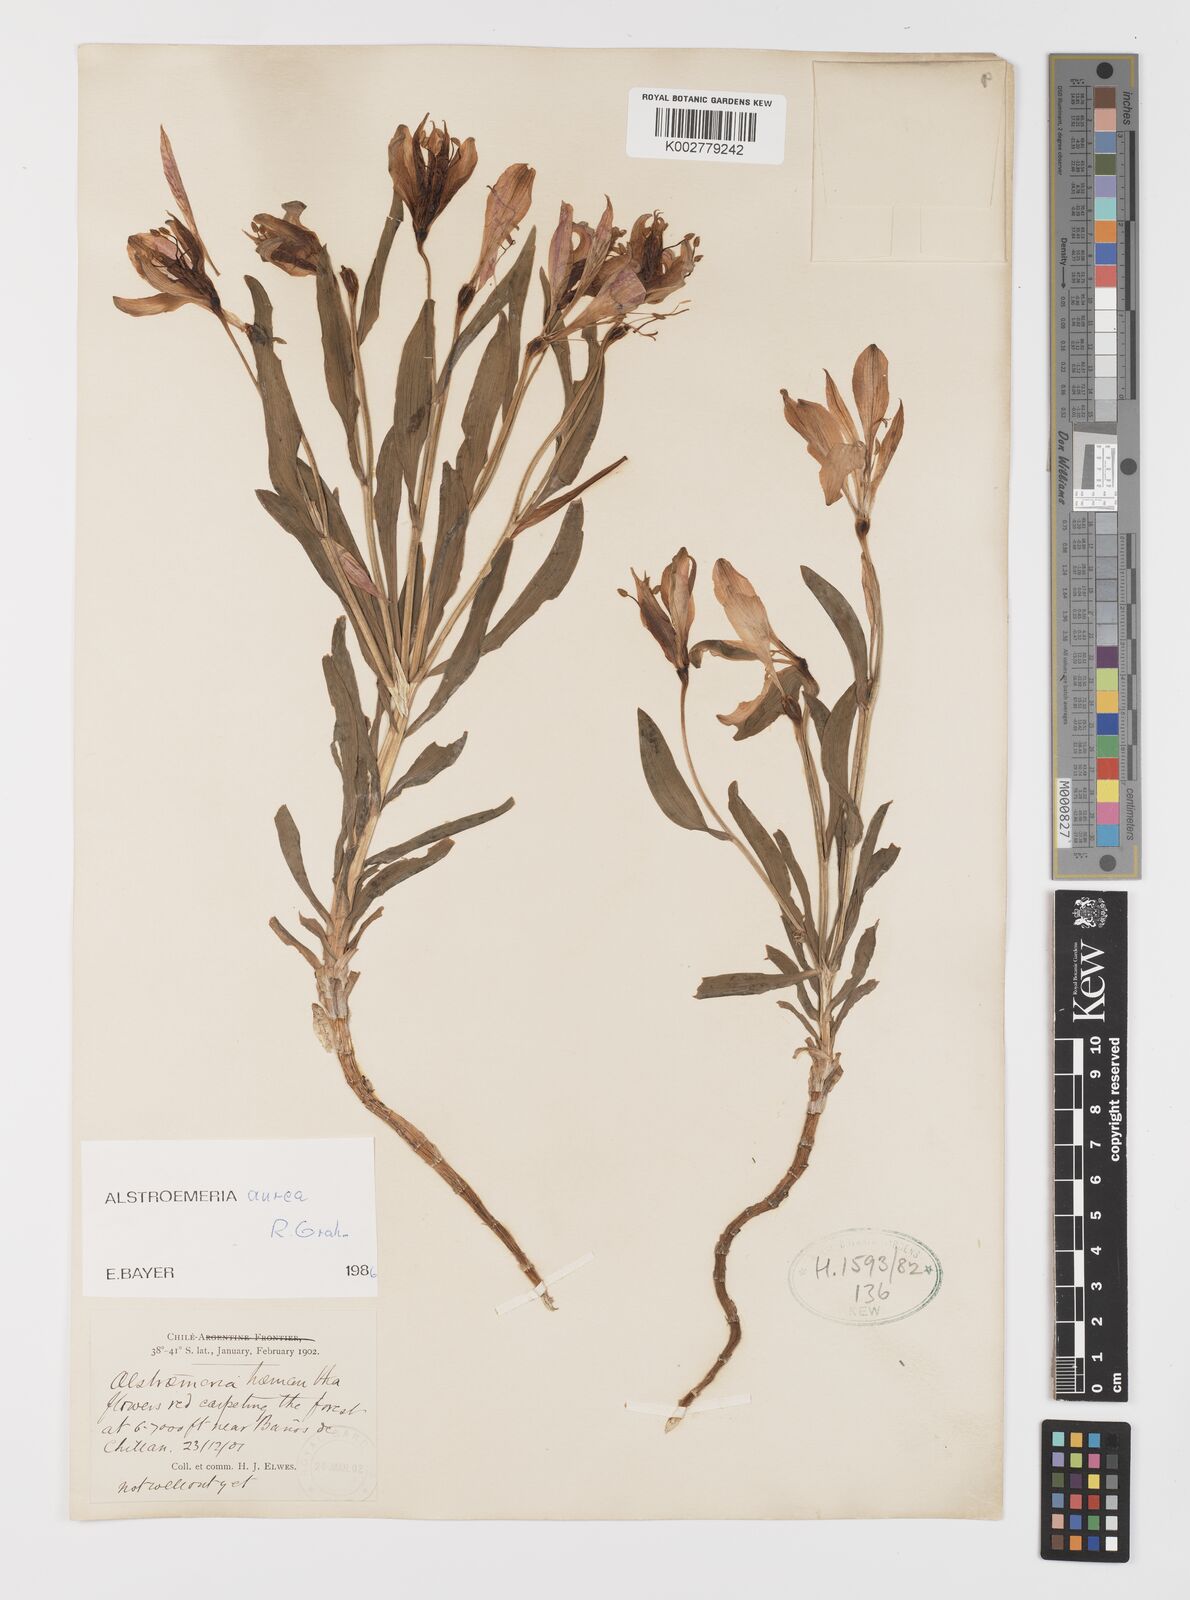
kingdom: Plantae
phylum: Tracheophyta
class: Liliopsida
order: Liliales
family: Alstroemeriaceae
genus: Alstroemeria
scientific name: Alstroemeria aurea
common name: Peruvian lily
